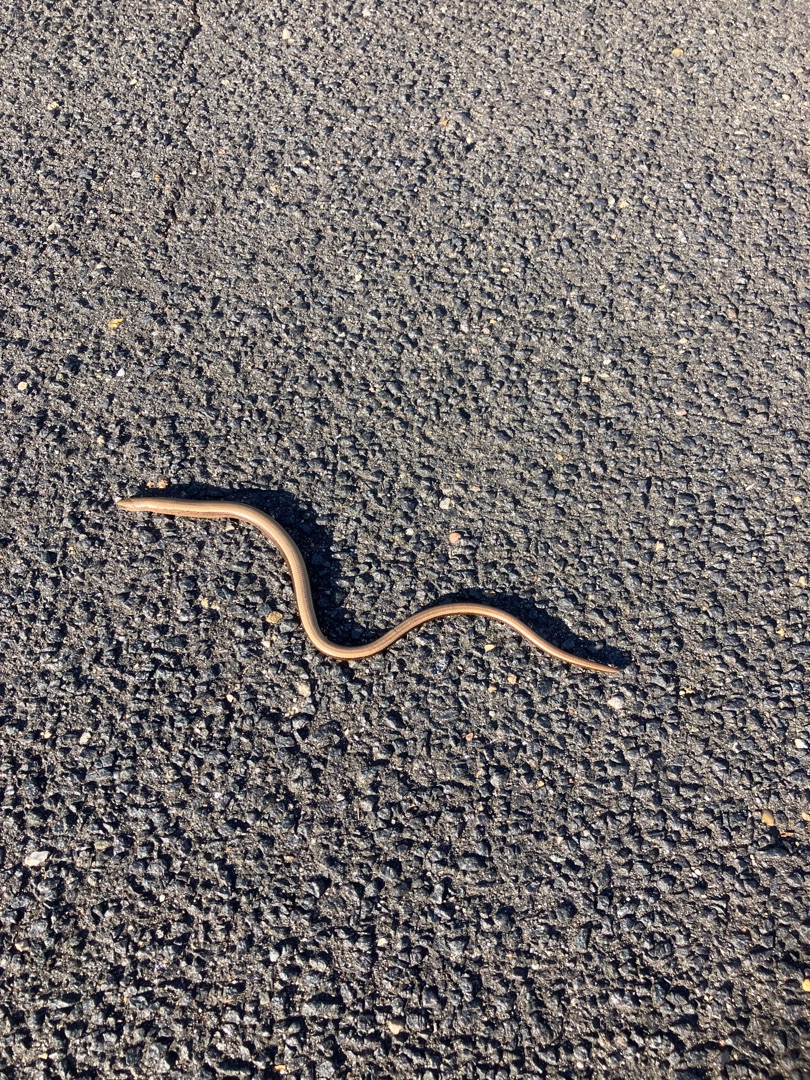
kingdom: Animalia
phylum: Chordata
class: Squamata
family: Anguidae
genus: Anguis
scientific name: Anguis fragilis
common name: Stålorm
